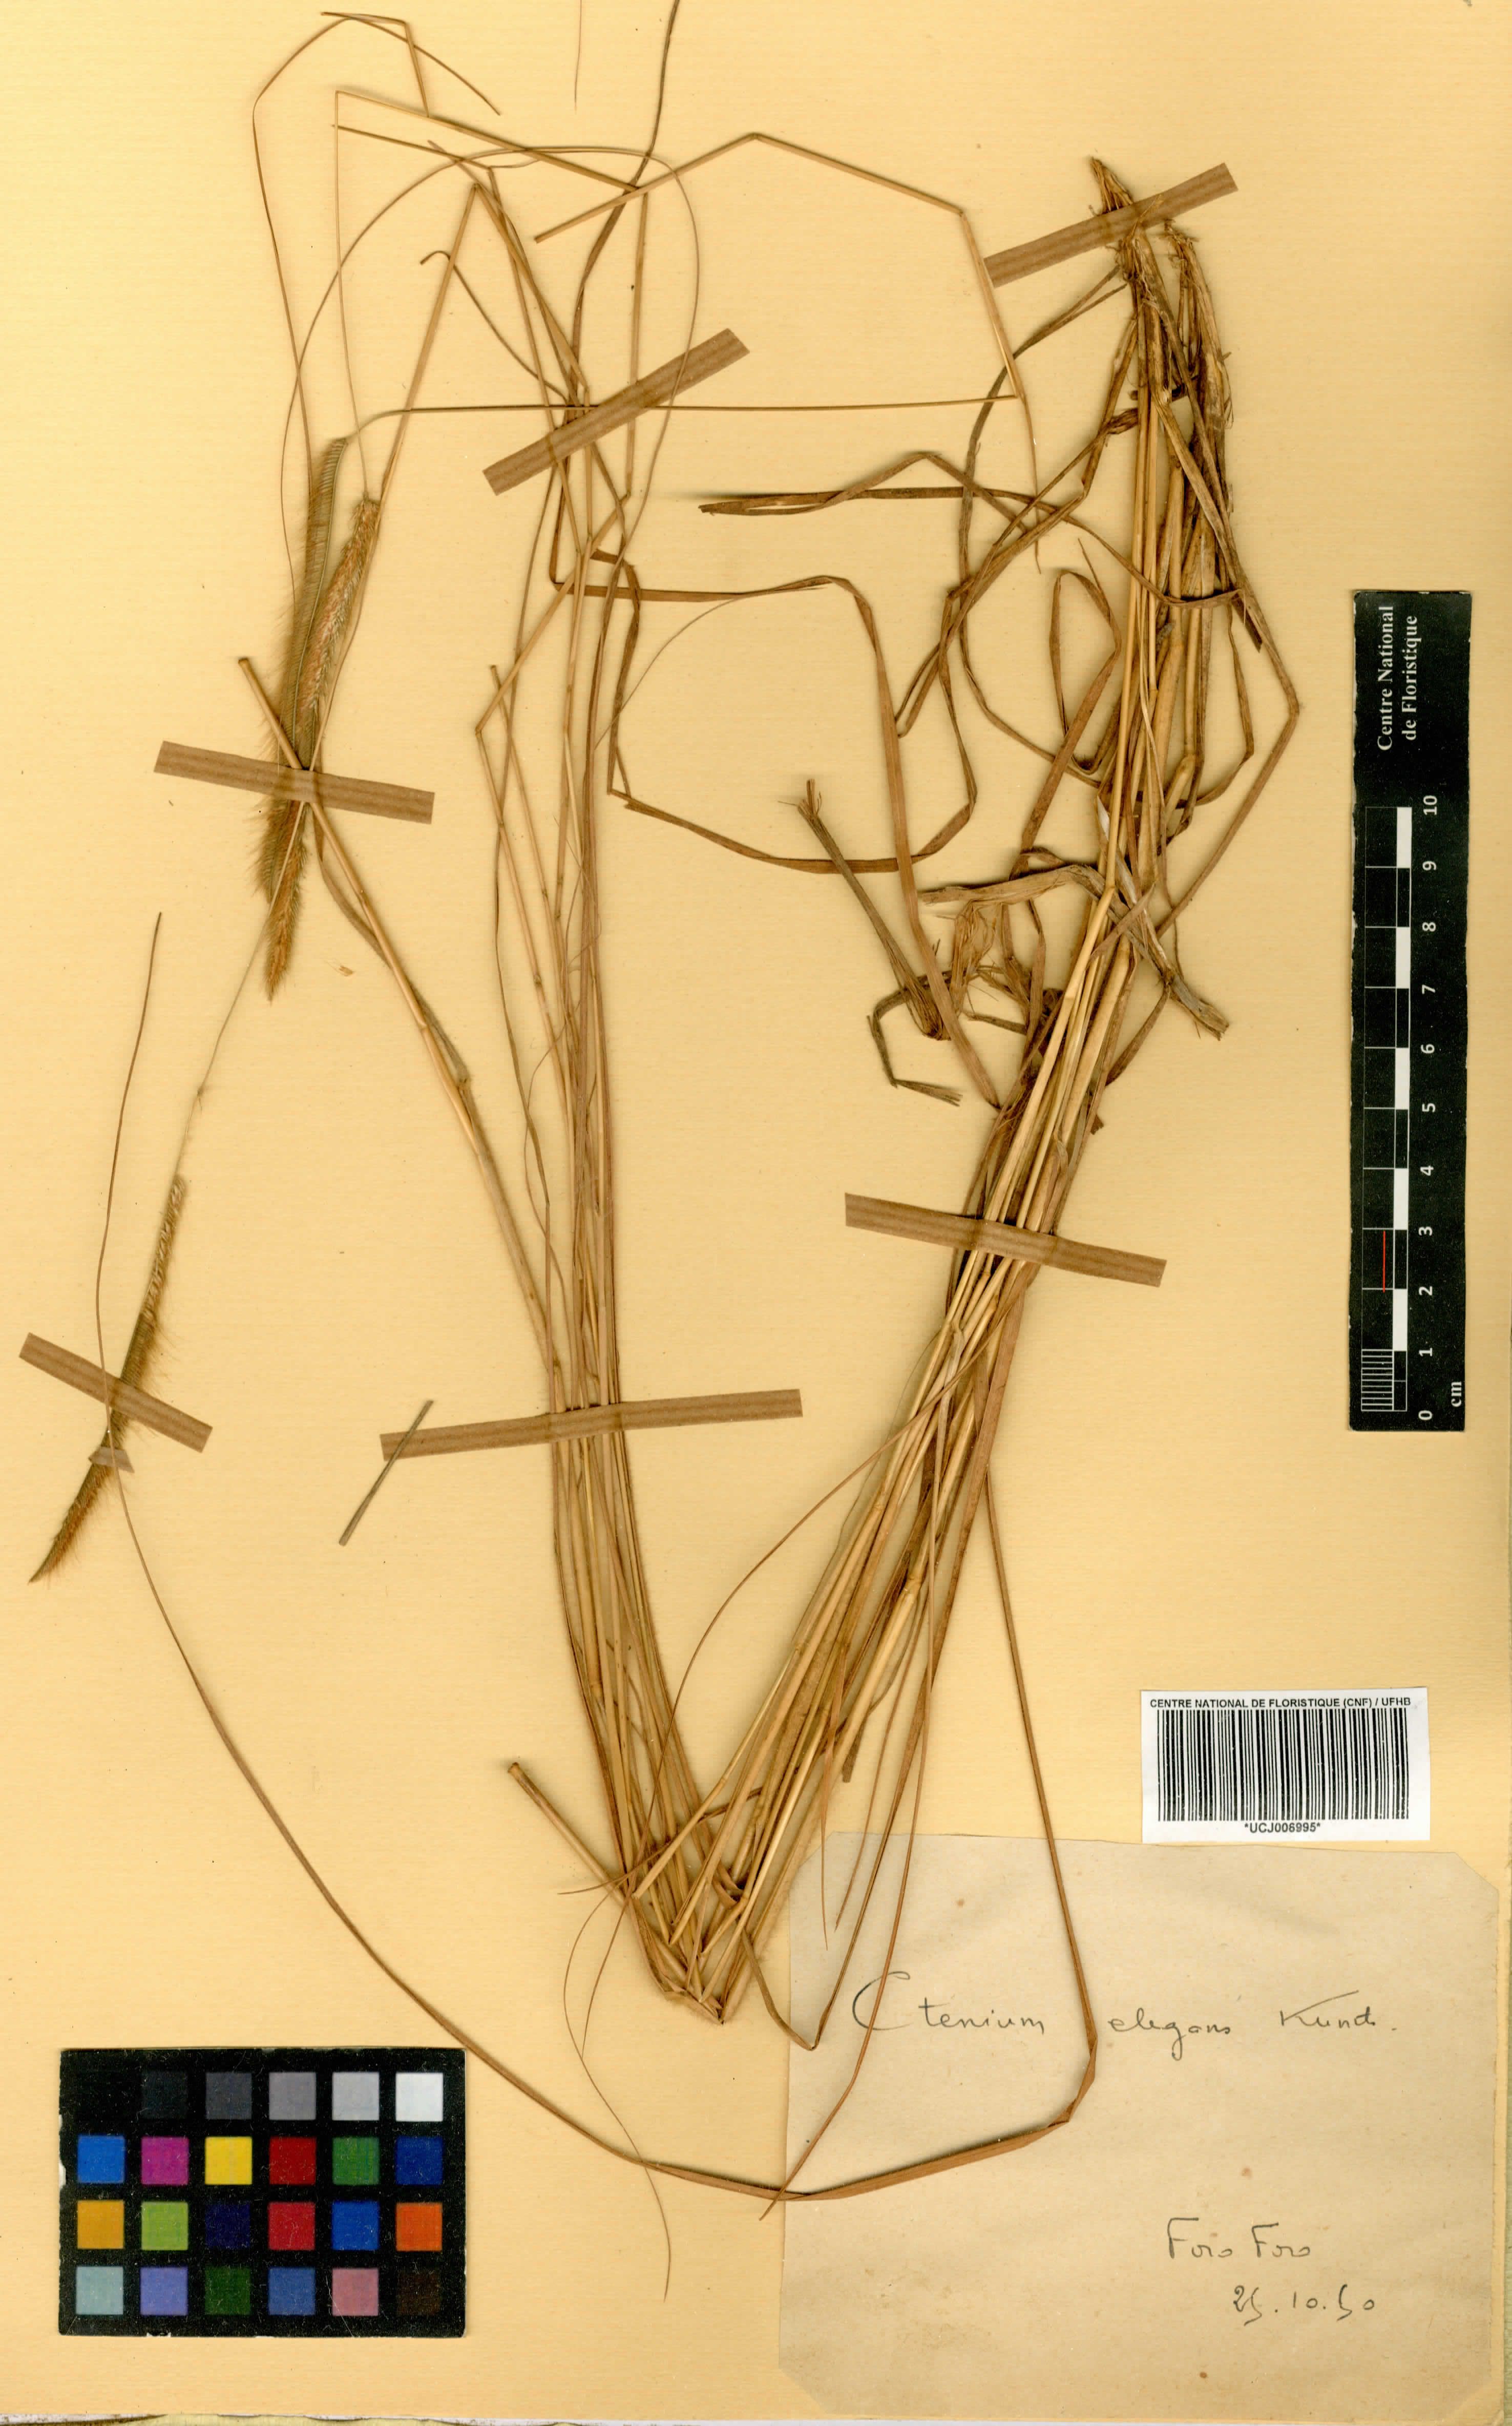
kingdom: Plantae
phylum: Tracheophyta
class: Liliopsida
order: Poales
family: Poaceae
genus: Ctenium
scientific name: Ctenium elegans
